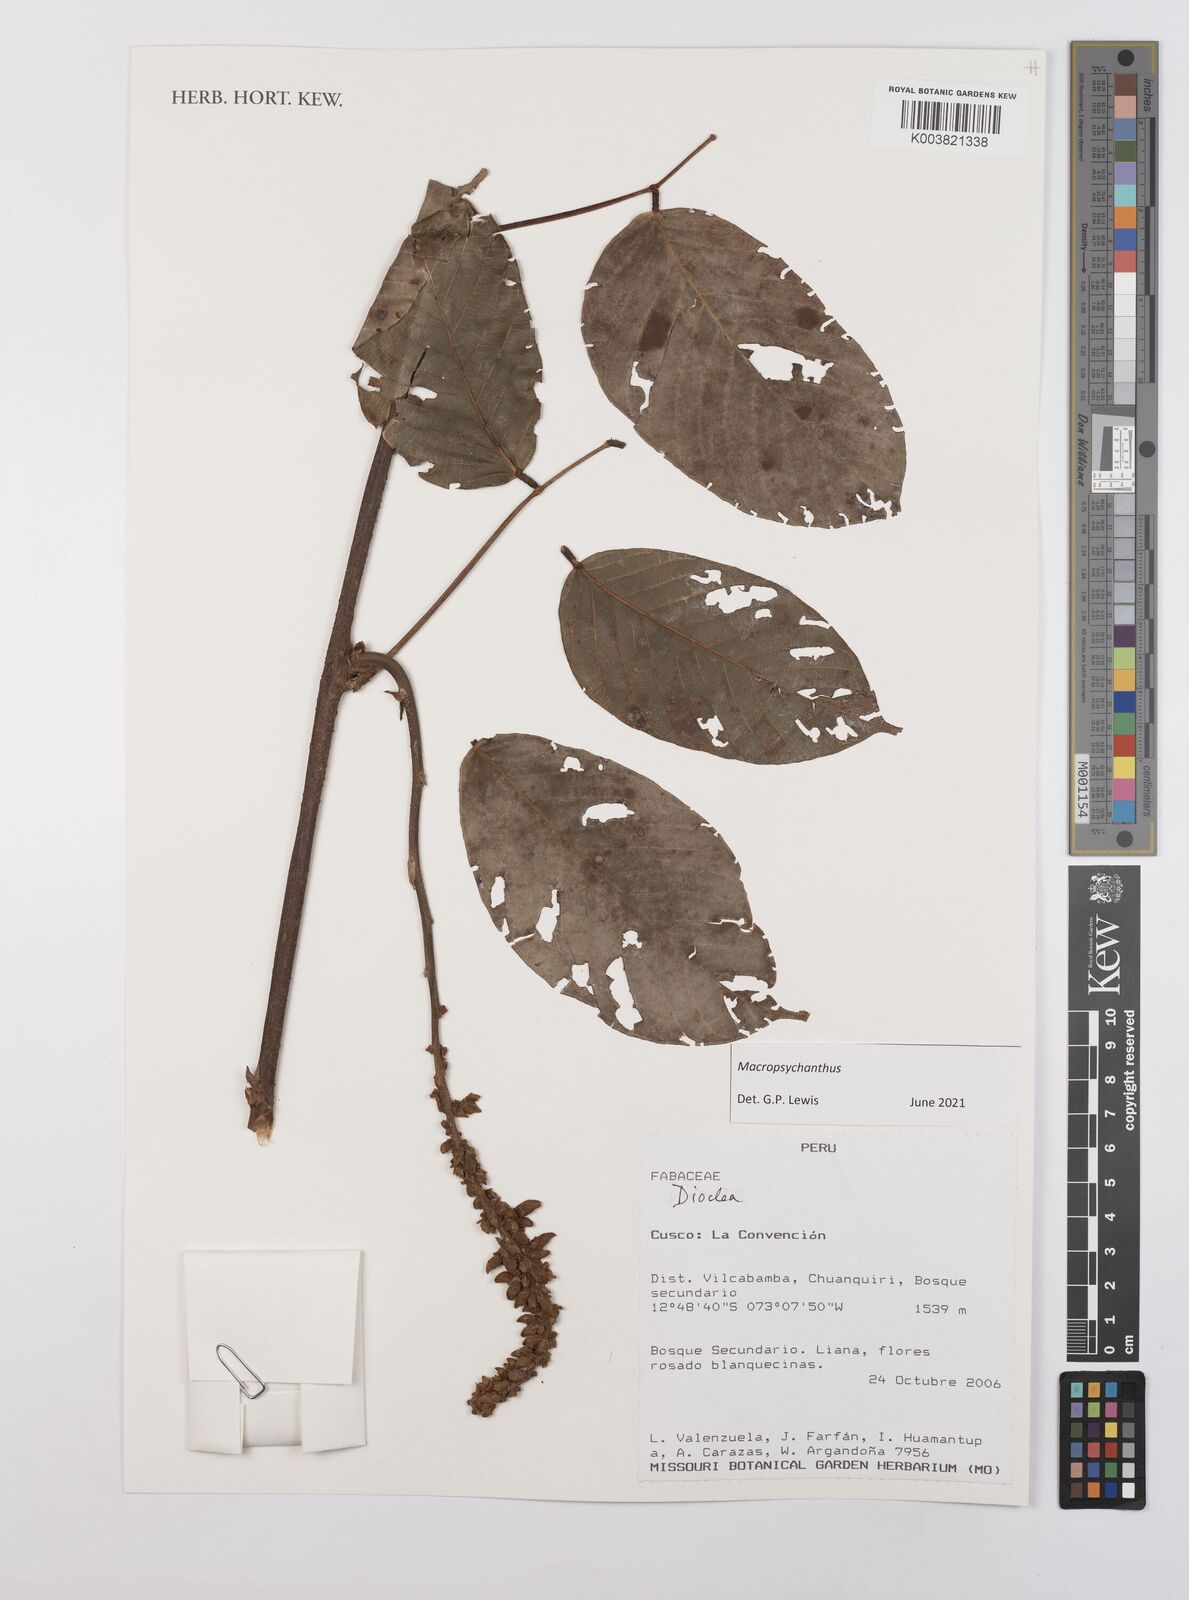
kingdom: Plantae
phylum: Tracheophyta
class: Magnoliopsida
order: Fabales
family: Fabaceae
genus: Macropsychanthus
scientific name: Macropsychanthus
